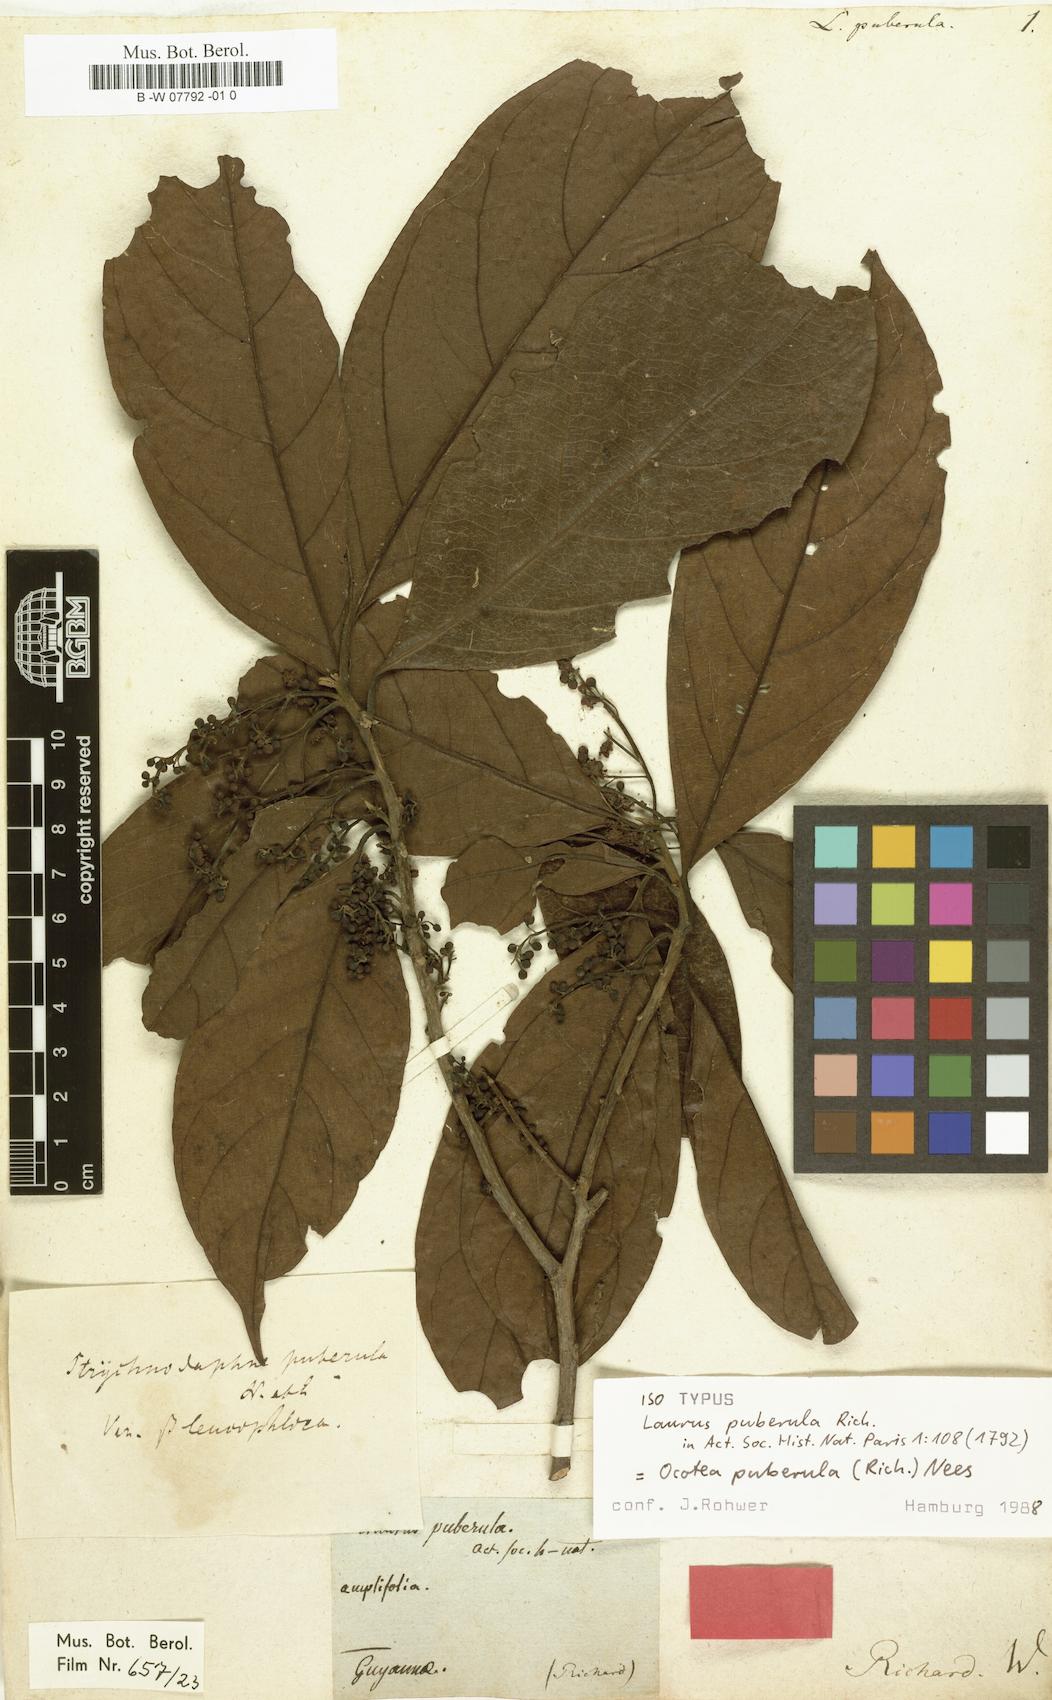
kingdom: Plantae
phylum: Tracheophyta
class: Magnoliopsida
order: Laurales
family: Lauraceae
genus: Ocotea
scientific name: Ocotea puberula
